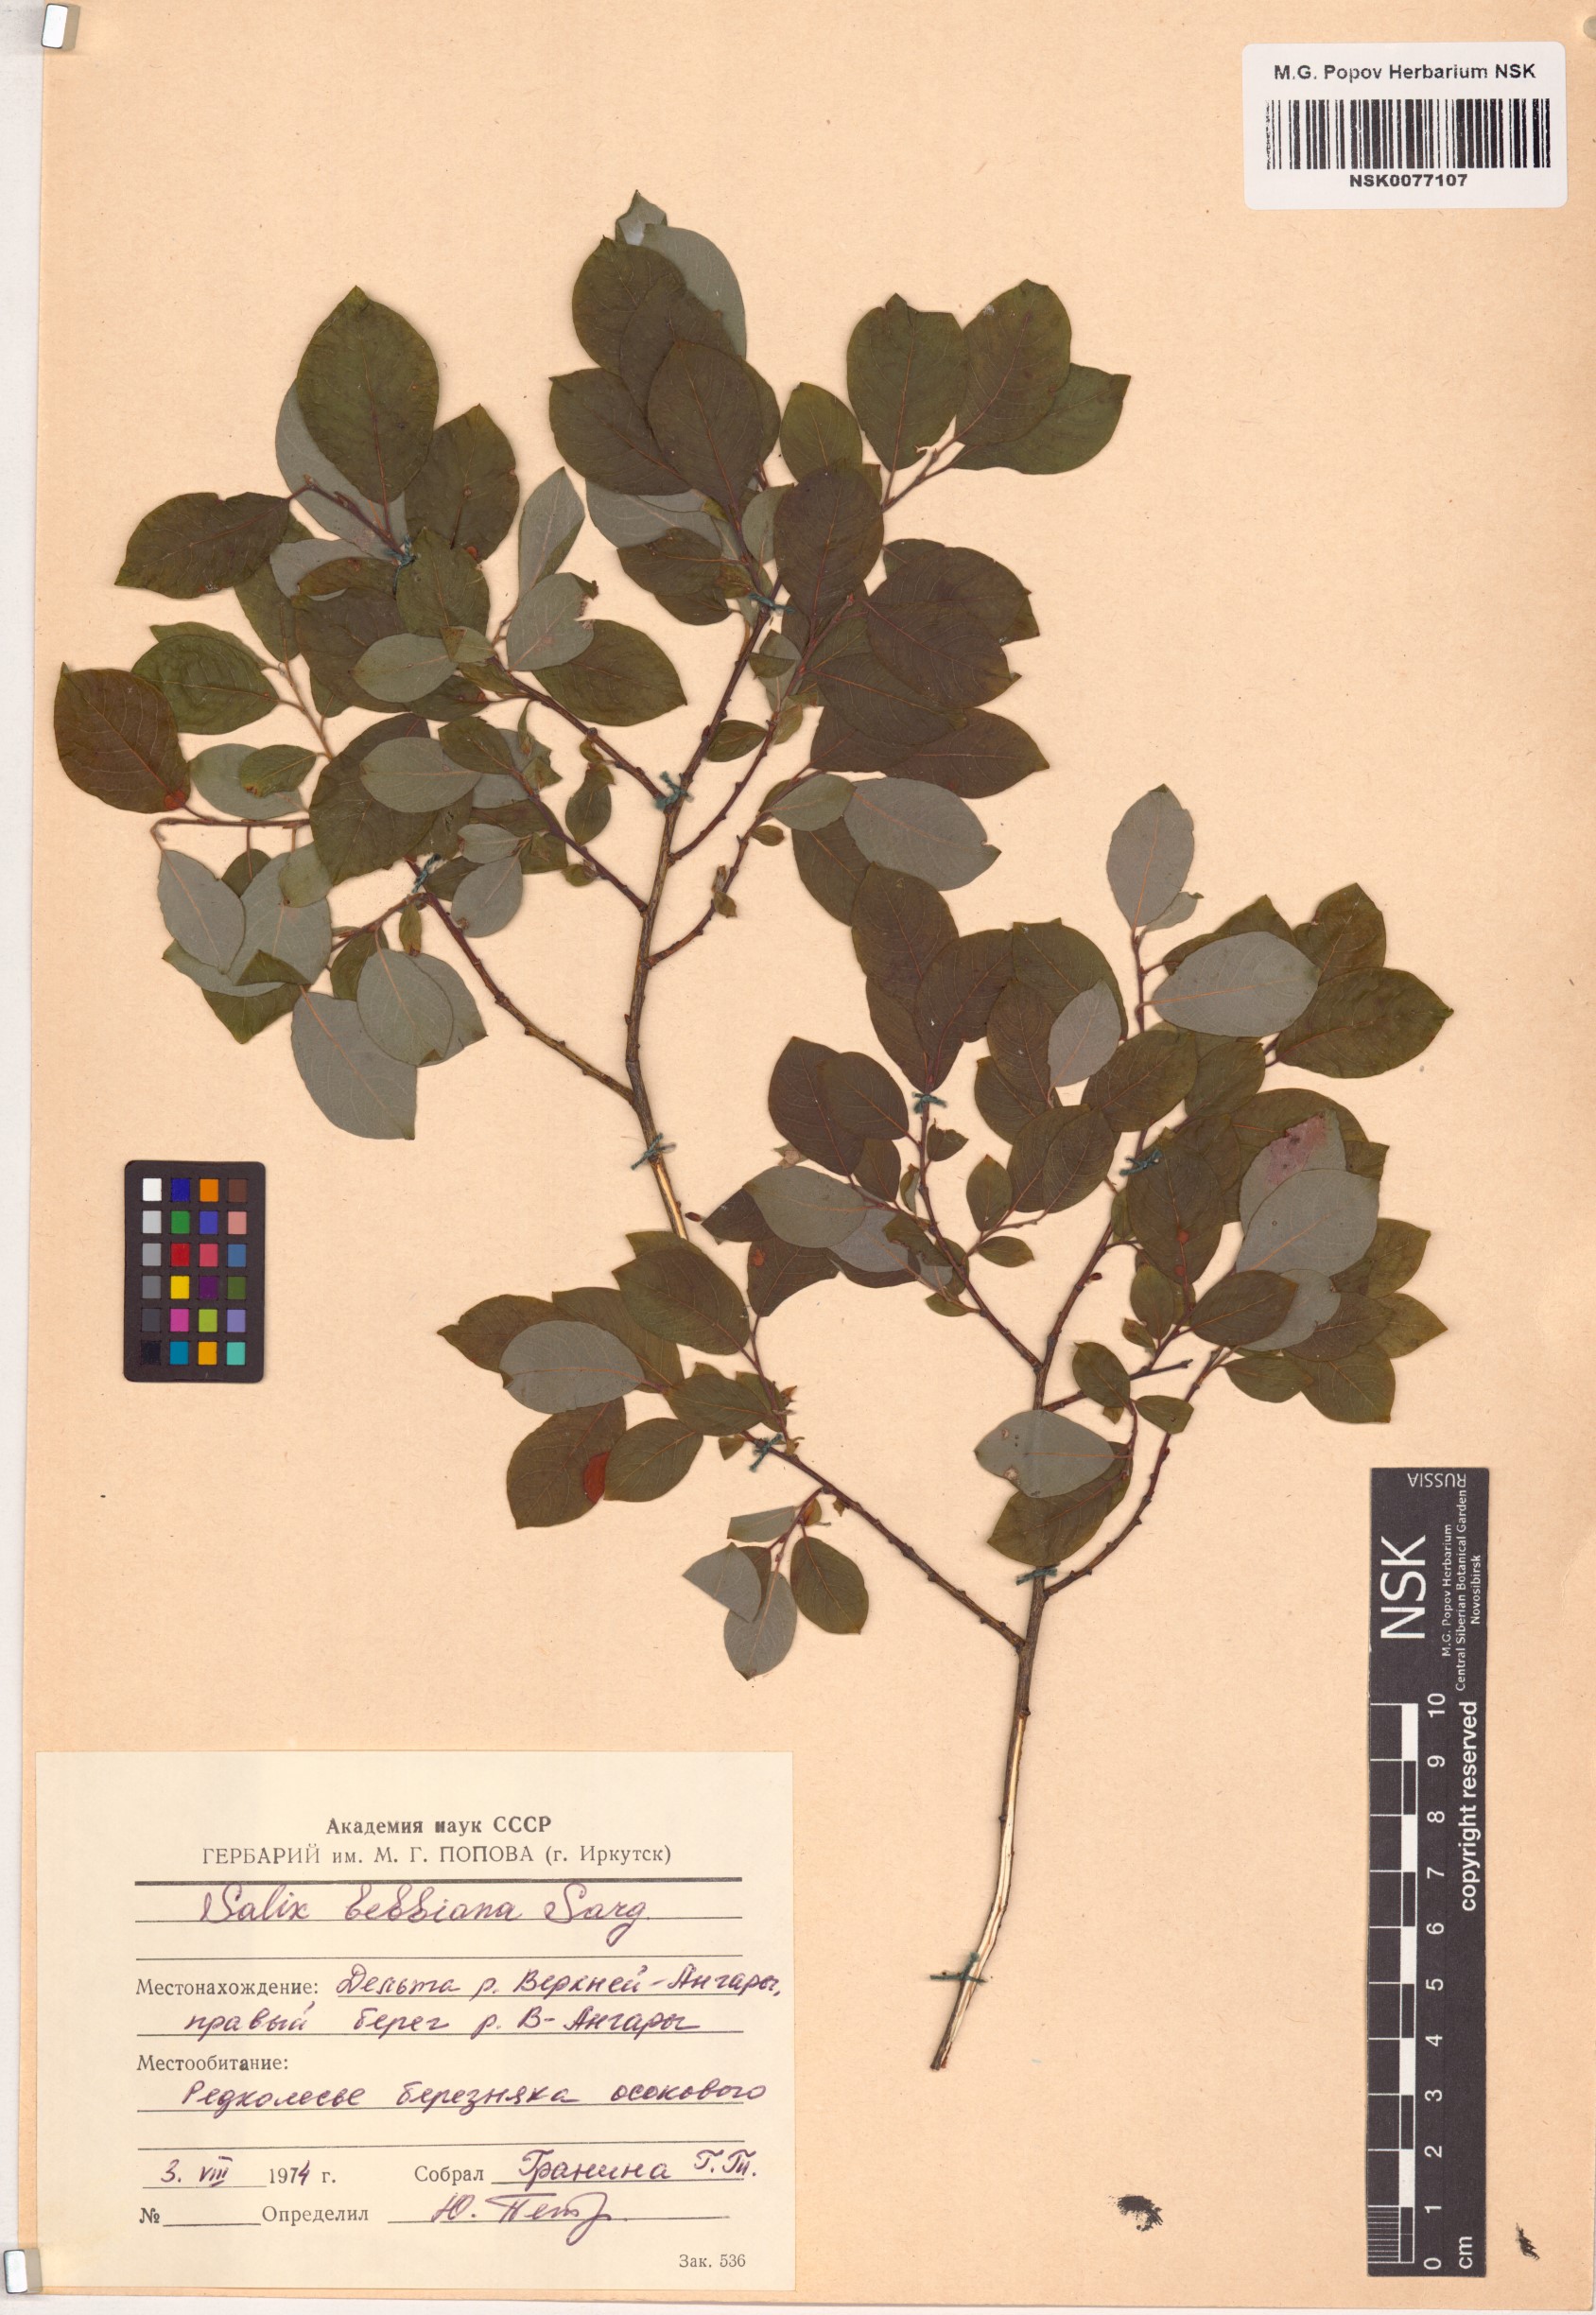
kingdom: Plantae
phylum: Tracheophyta
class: Magnoliopsida
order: Malpighiales
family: Salicaceae
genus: Salix
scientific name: Salix bebbiana
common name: Bebb's willow
